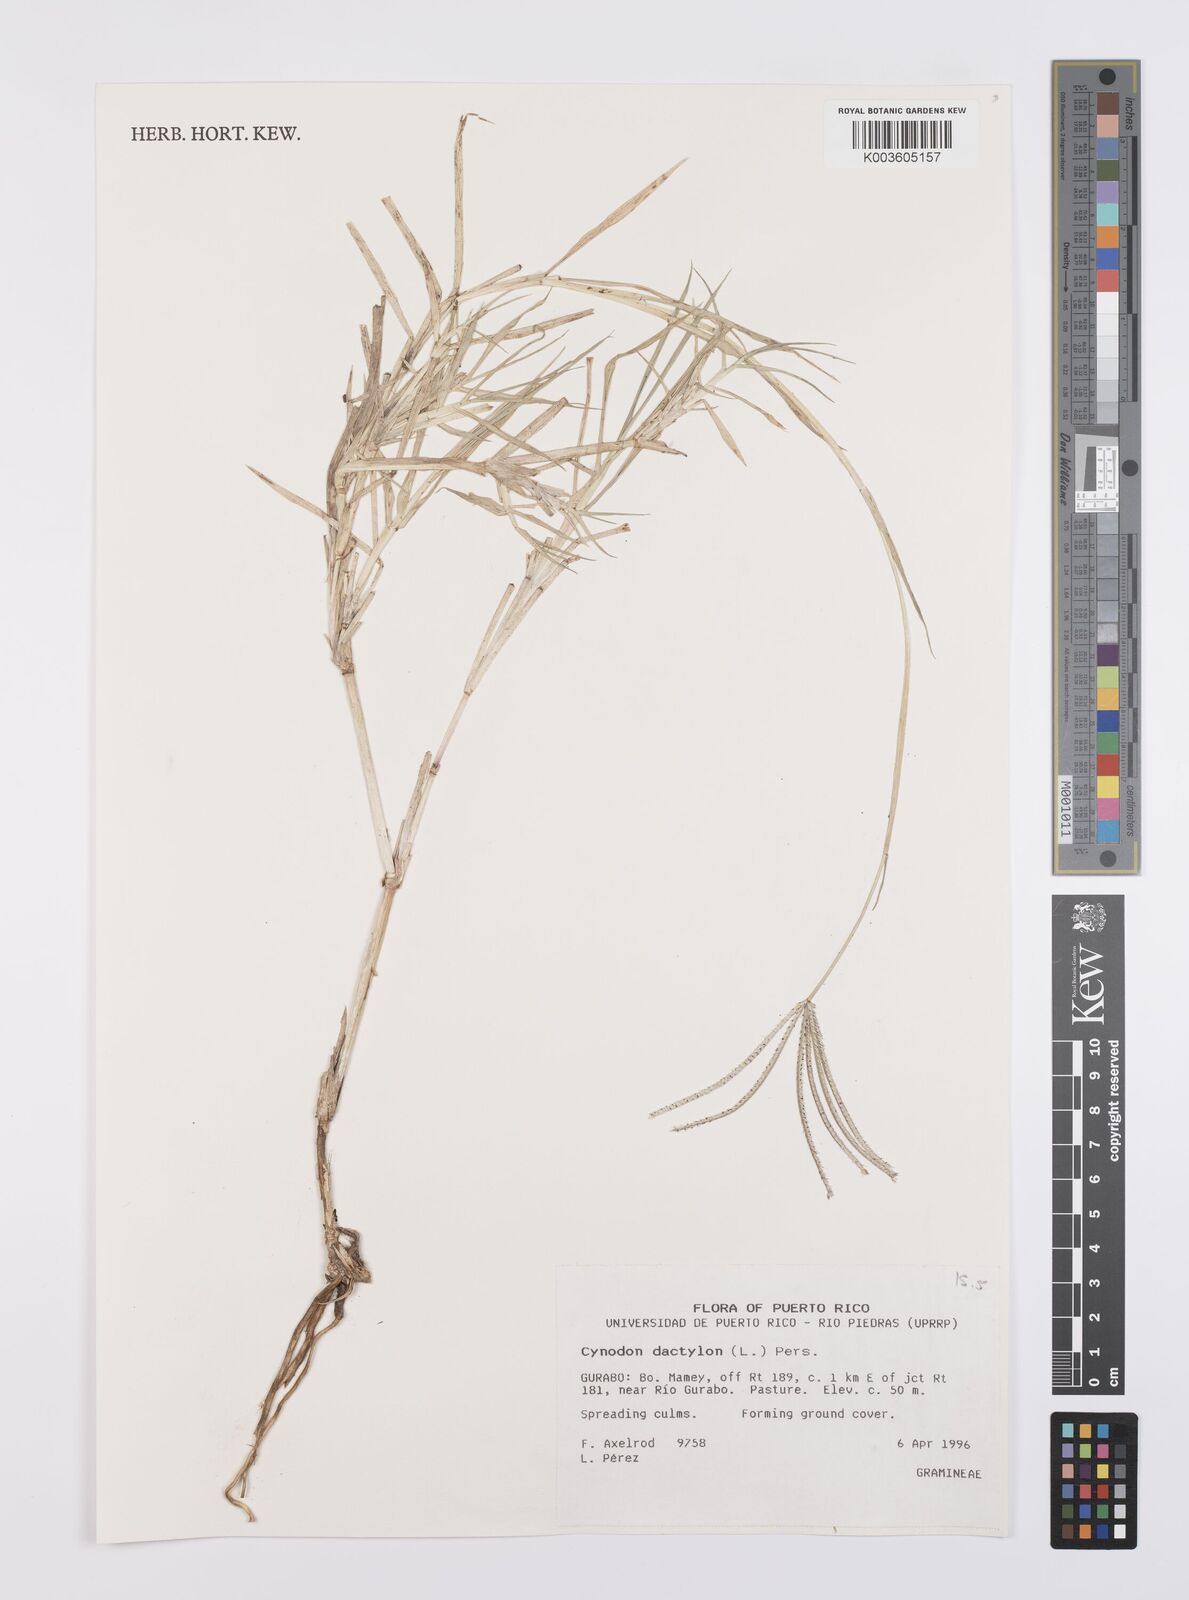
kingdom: Plantae
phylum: Tracheophyta
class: Liliopsida
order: Poales
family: Poaceae
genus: Cynodon
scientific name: Cynodon dactylon
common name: Bermuda grass
